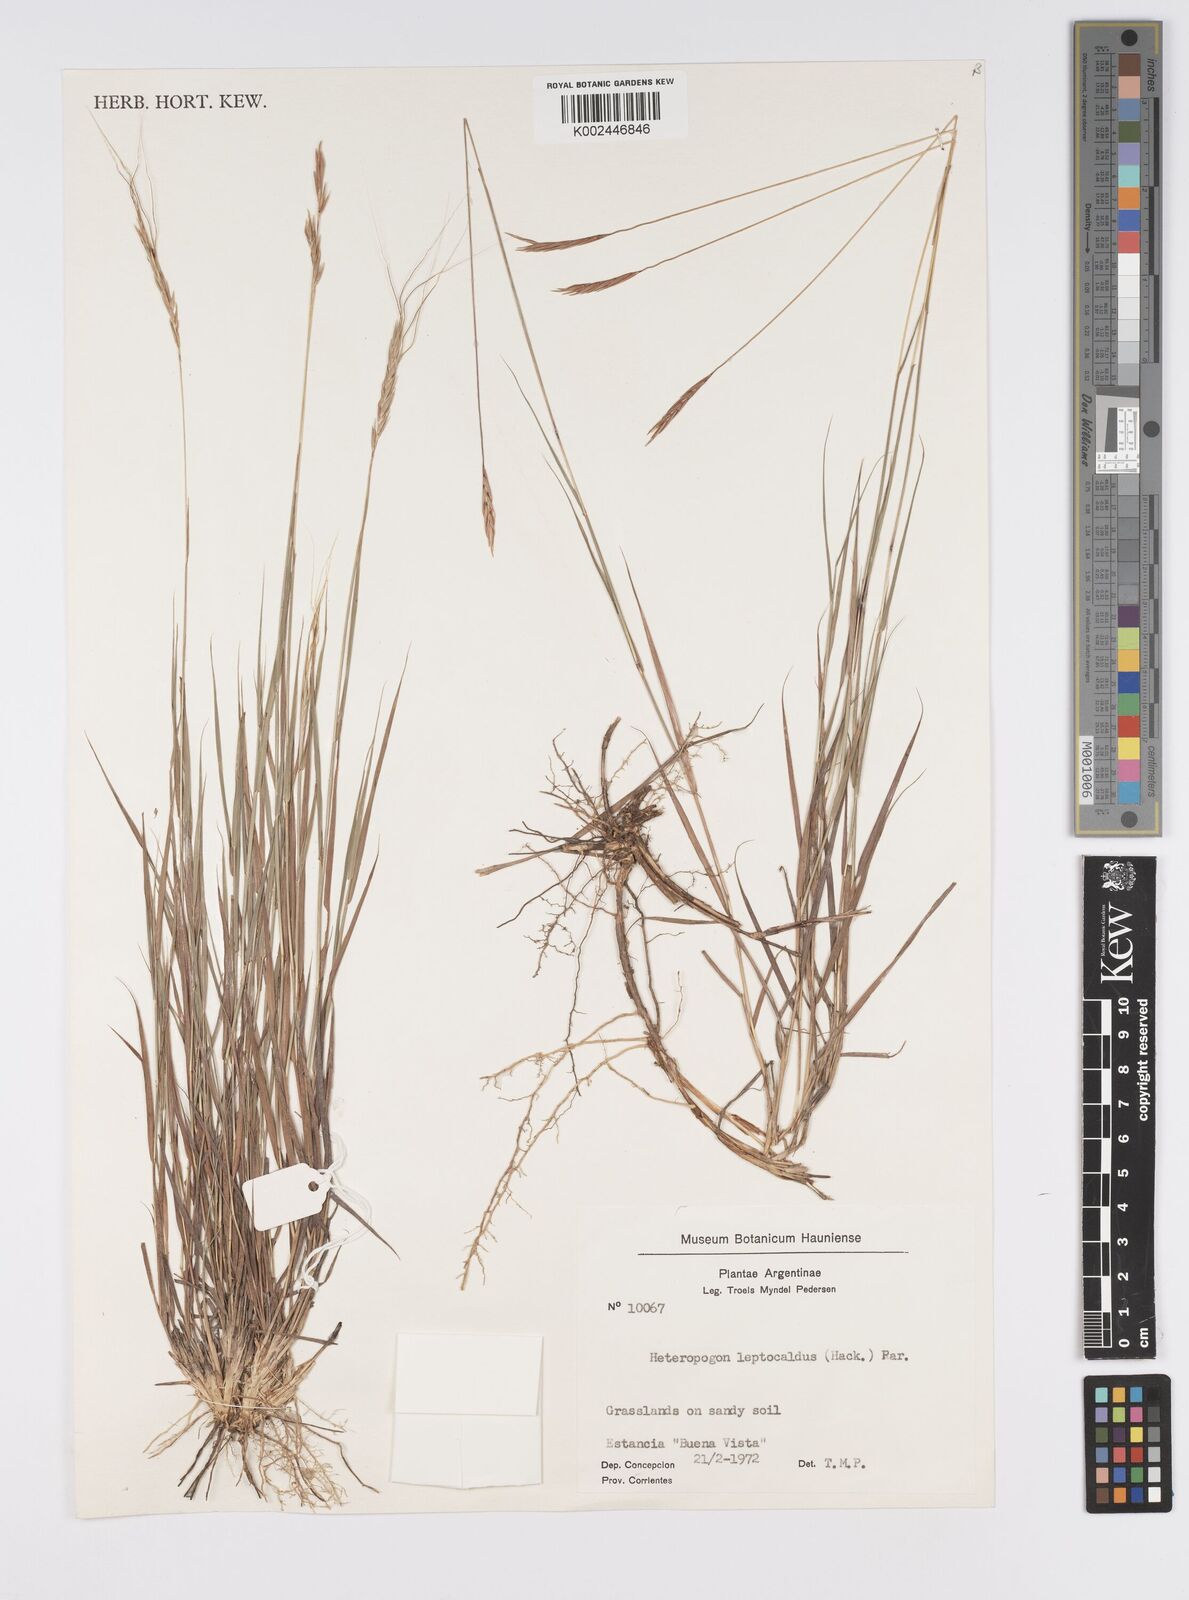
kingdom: Plantae
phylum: Tracheophyta
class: Liliopsida
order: Poales
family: Poaceae
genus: Agenium
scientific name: Agenium leptocladum
